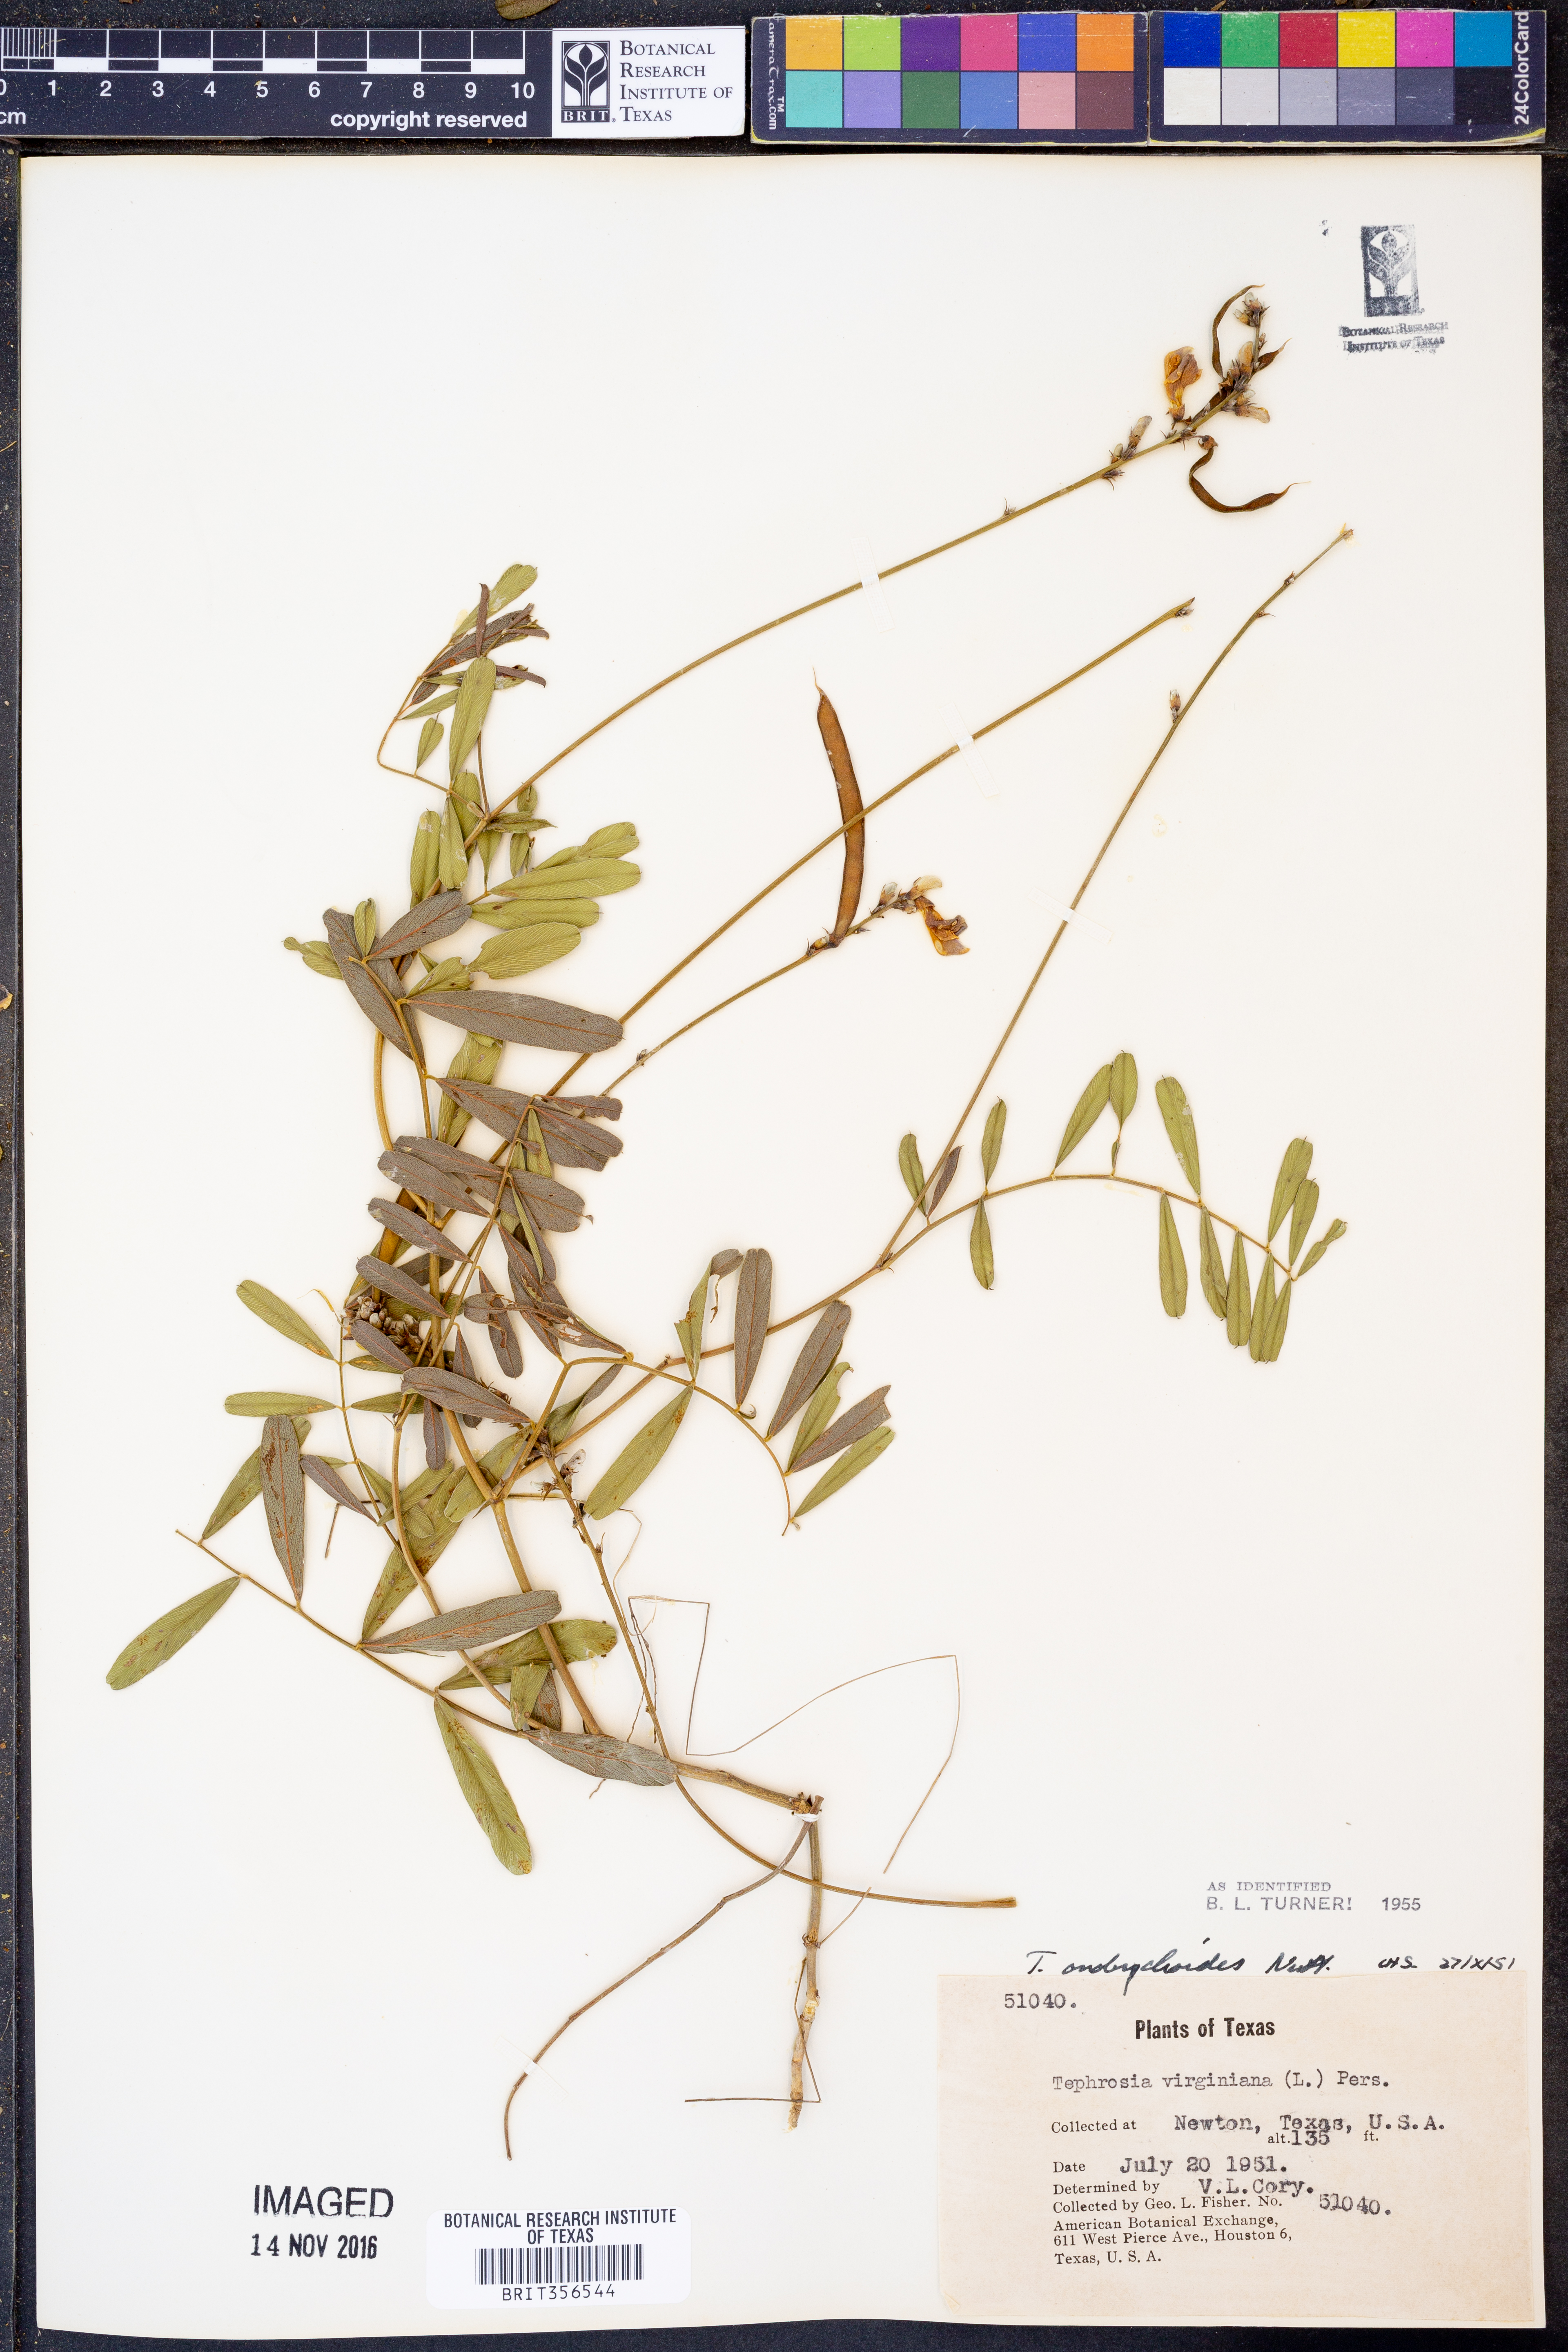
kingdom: Plantae
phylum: Tracheophyta
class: Magnoliopsida
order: Fabales
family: Fabaceae
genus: Tephrosia
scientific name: Tephrosia onobrychoides
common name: Multi-bloom hoary-pea
